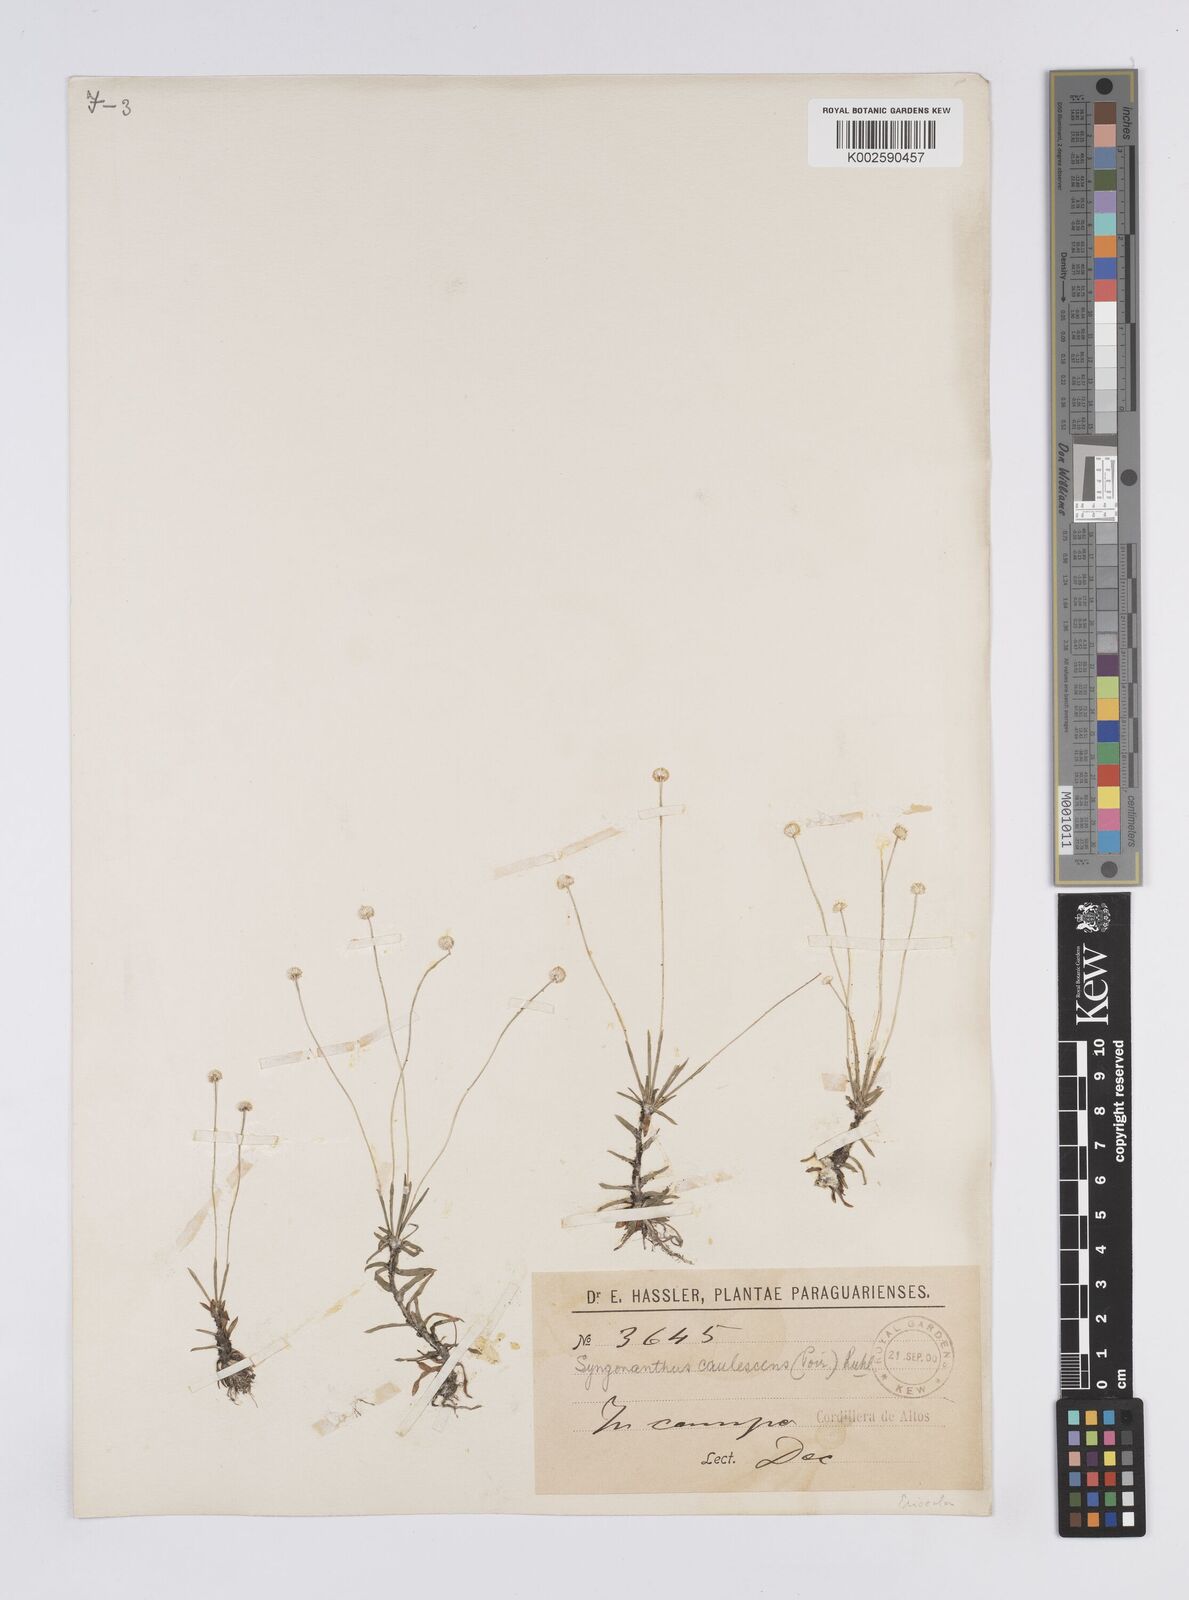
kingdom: Plantae
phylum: Tracheophyta
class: Liliopsida
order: Poales
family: Eriocaulaceae
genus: Syngonanthus
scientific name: Syngonanthus caulescens
